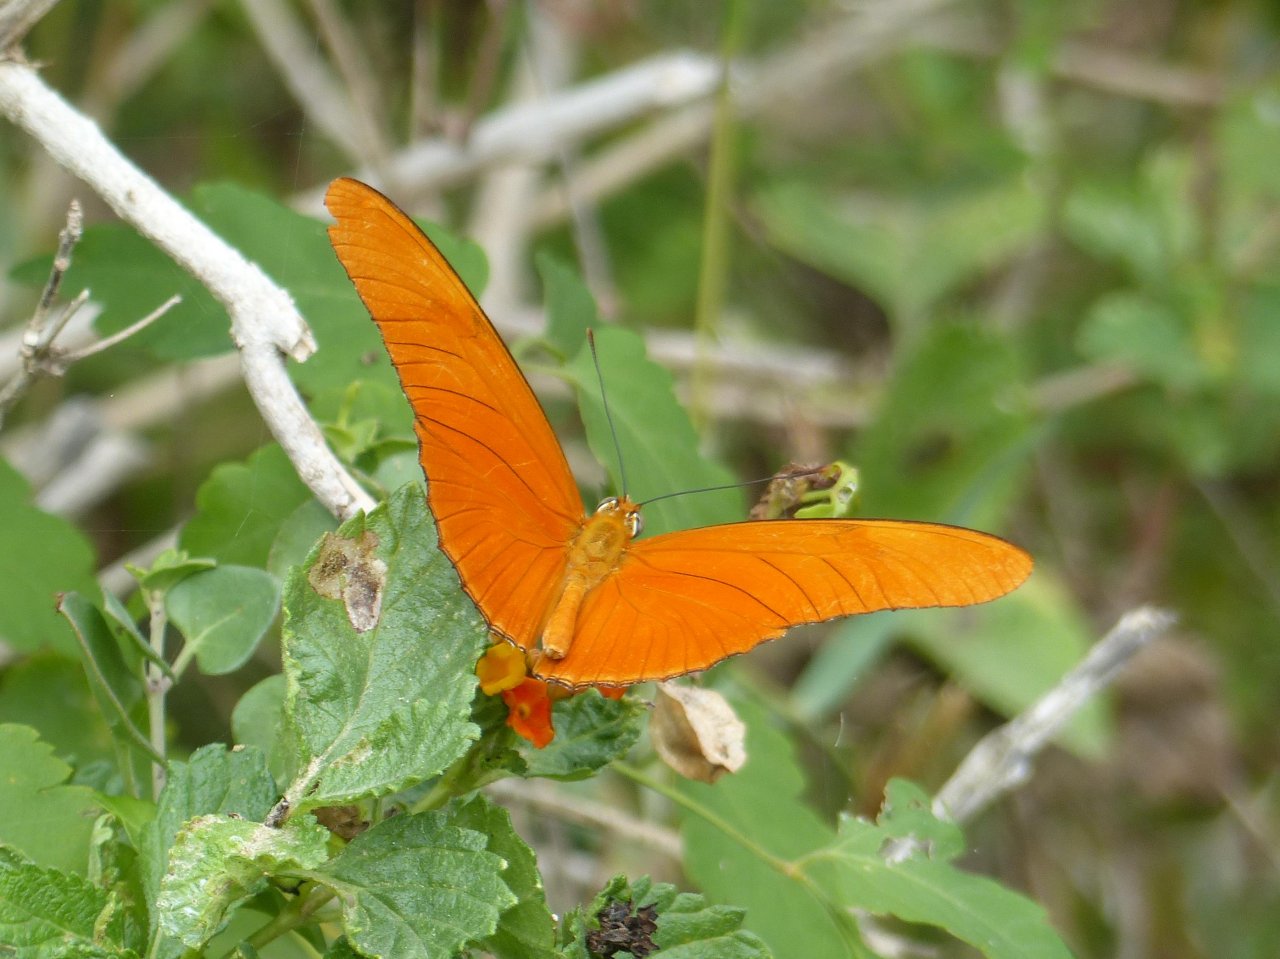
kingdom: Animalia
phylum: Arthropoda
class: Insecta
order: Lepidoptera
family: Nymphalidae
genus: Dryas
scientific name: Dryas iulia
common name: Julia
